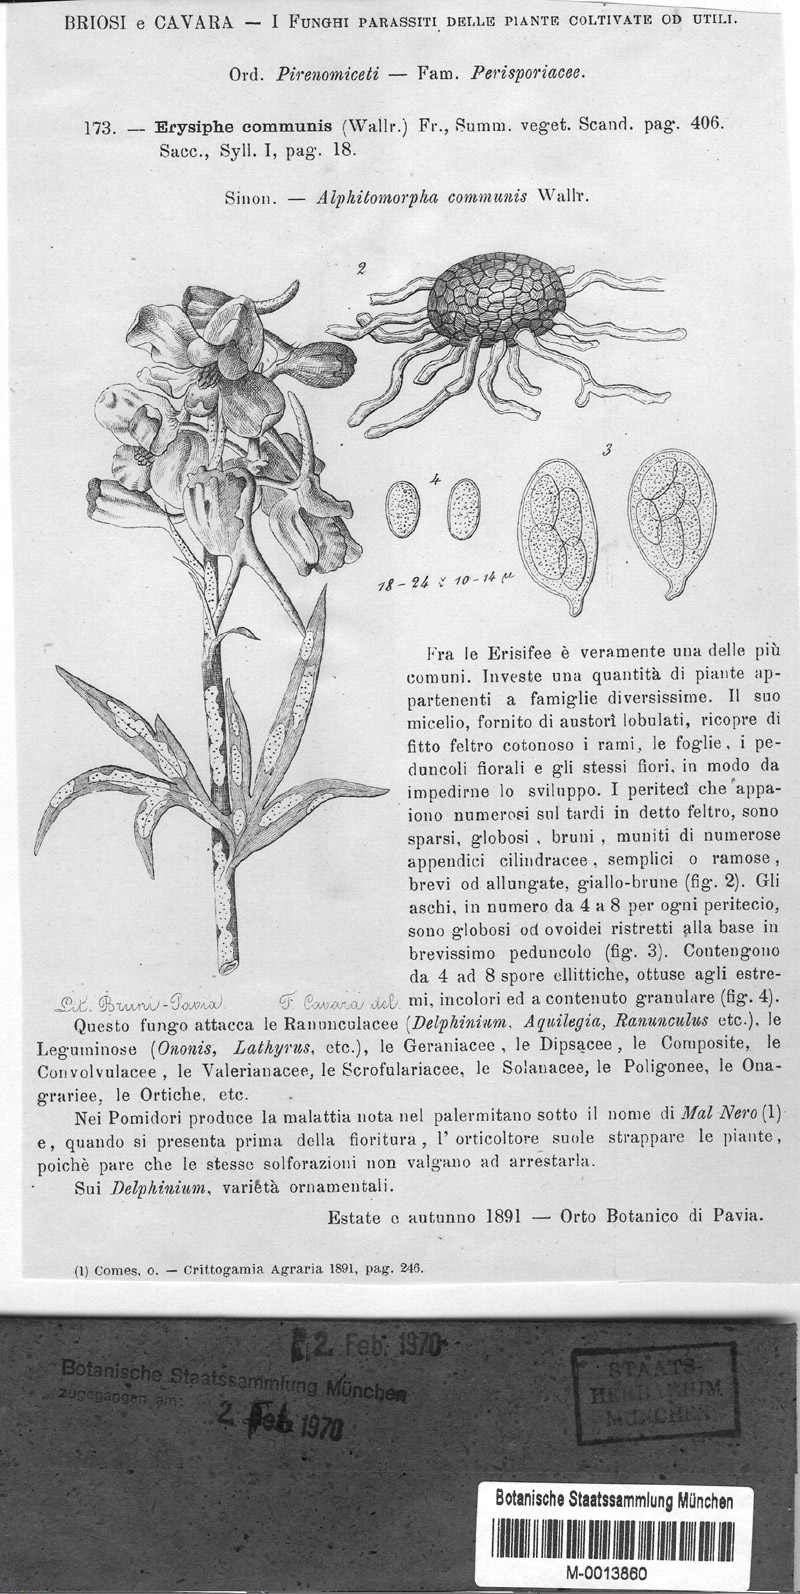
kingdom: Plantae
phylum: Tracheophyta
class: Magnoliopsida
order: Ranunculales
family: Ranunculaceae
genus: Delphinium
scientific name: Delphinium
